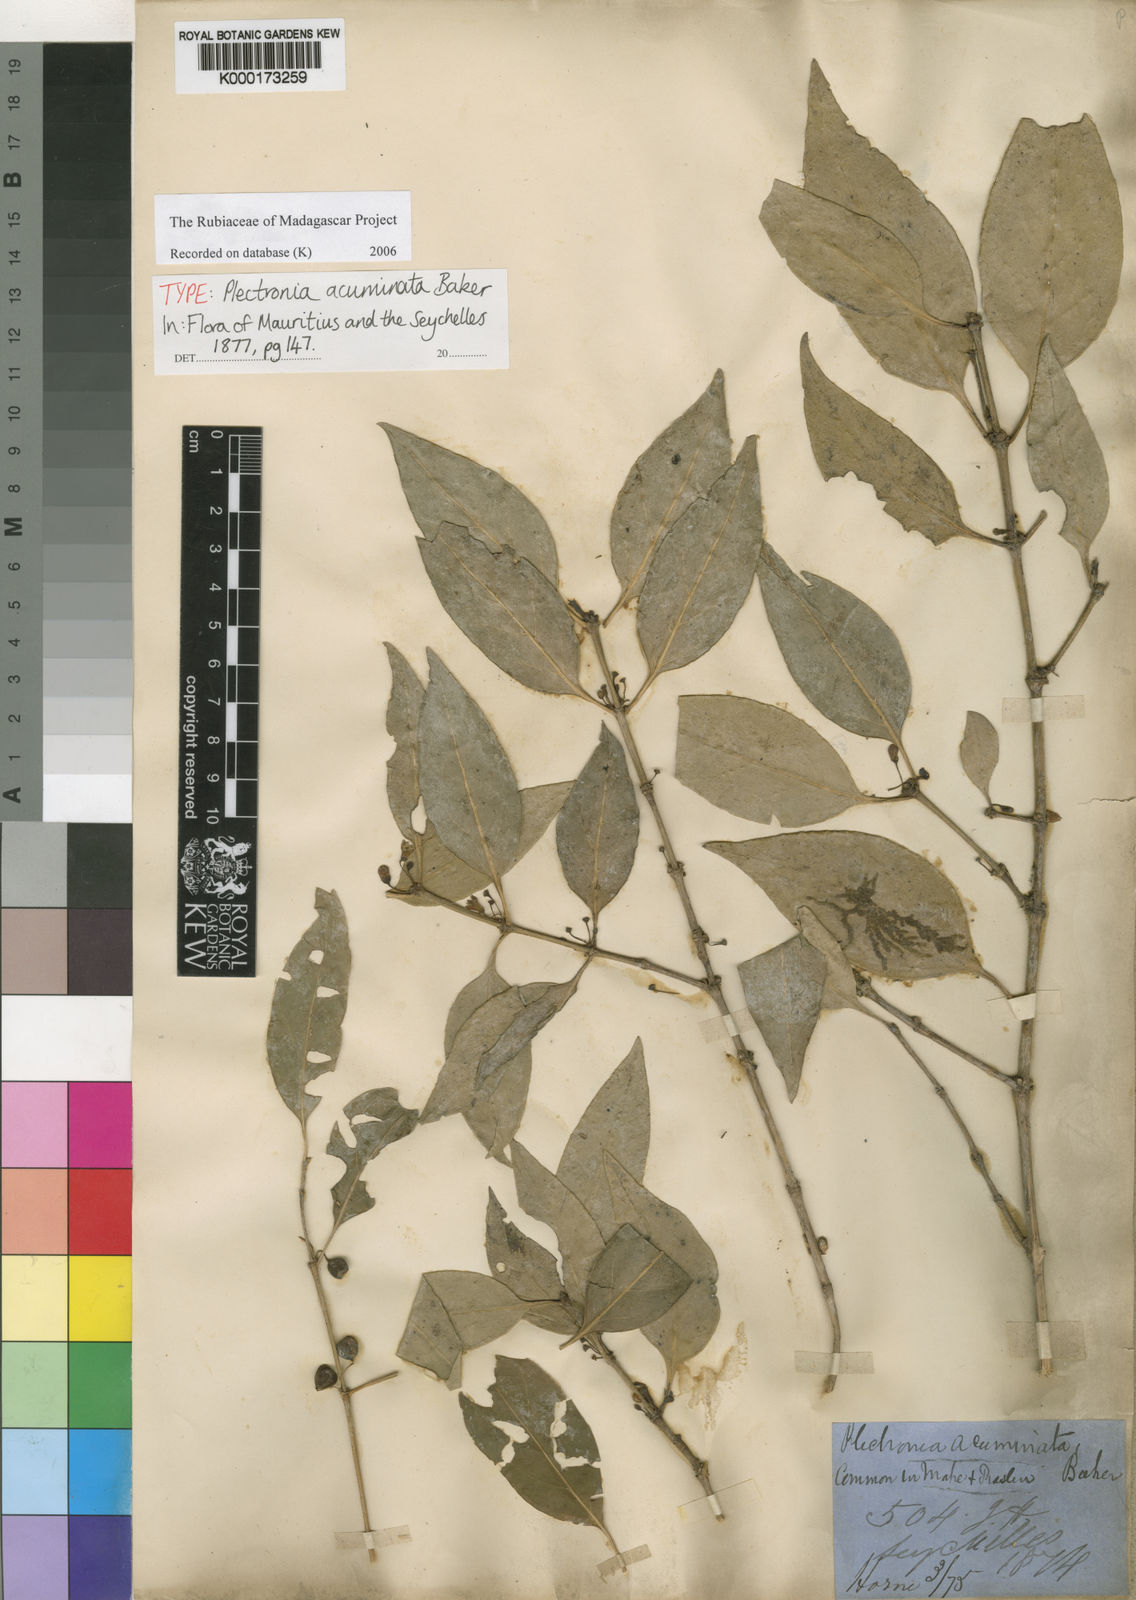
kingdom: Plantae
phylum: Tracheophyta
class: Magnoliopsida
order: Gentianales
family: Rubiaceae
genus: Peponidium
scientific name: Peponidium carinatum
